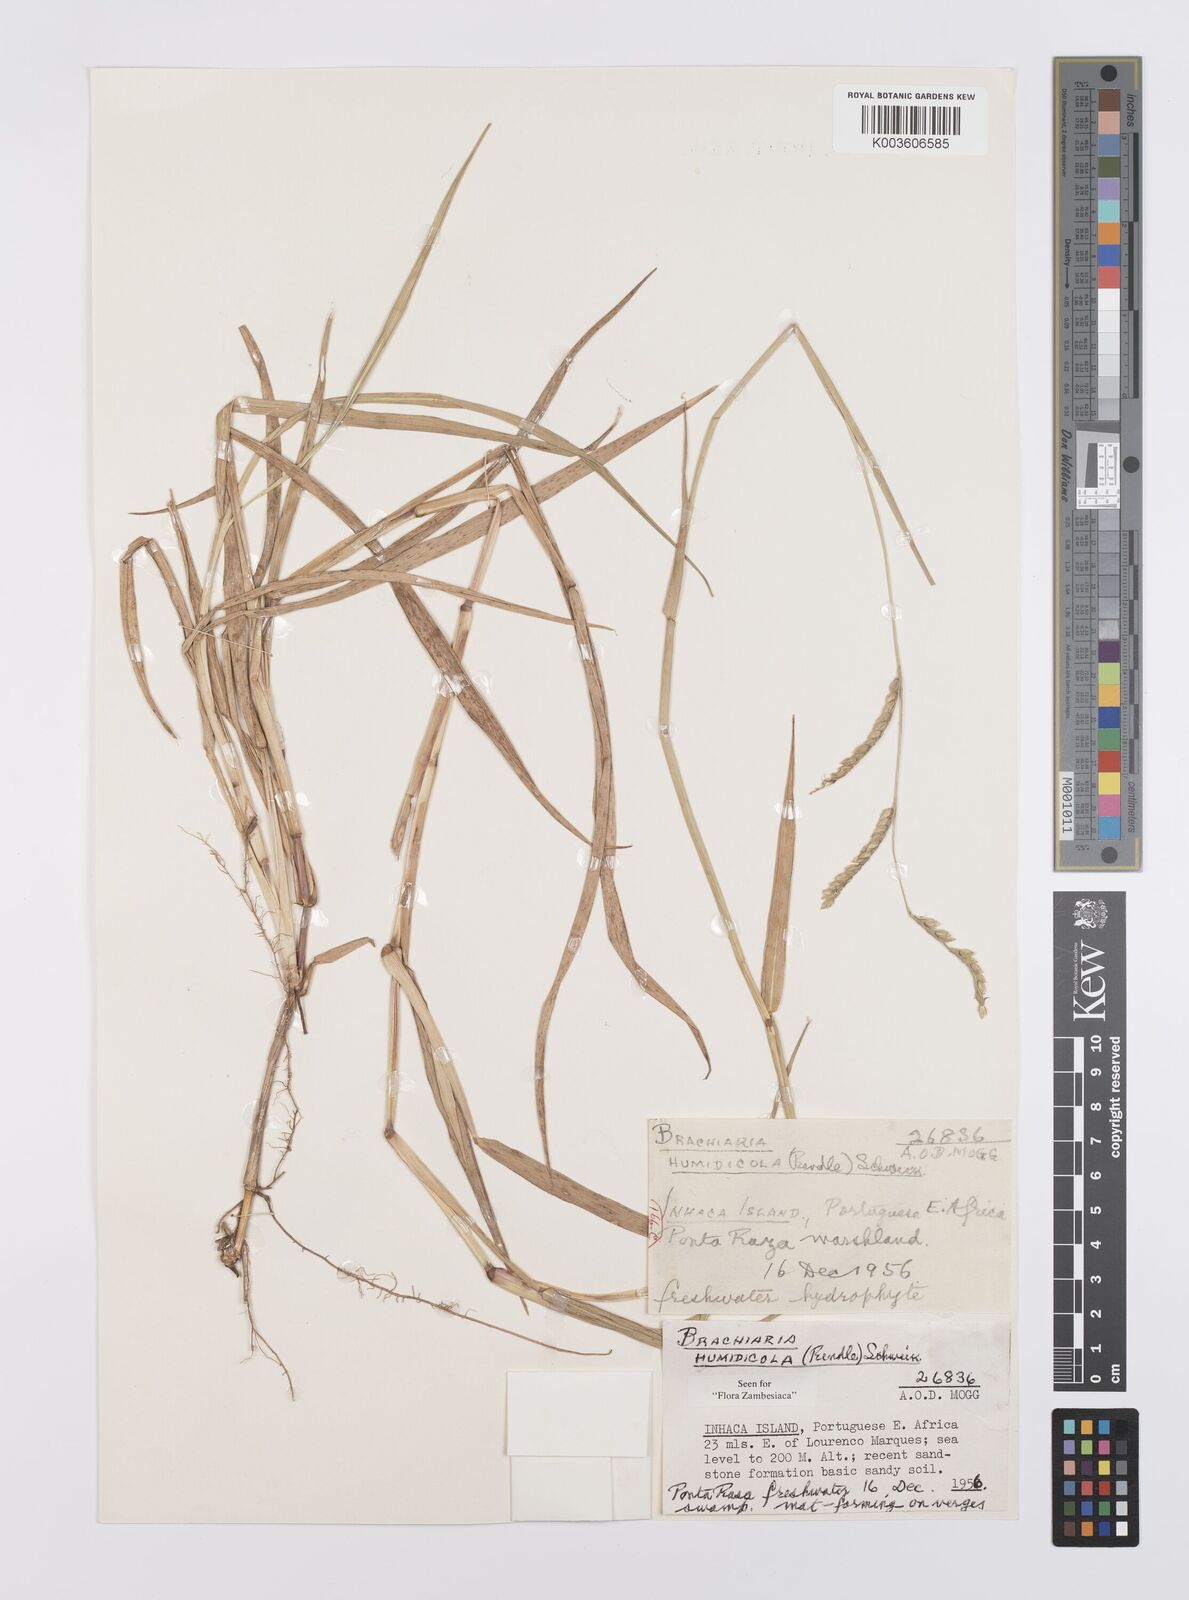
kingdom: Plantae
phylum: Tracheophyta
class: Liliopsida
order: Poales
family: Poaceae
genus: Urochloa
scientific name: Urochloa dictyoneura
